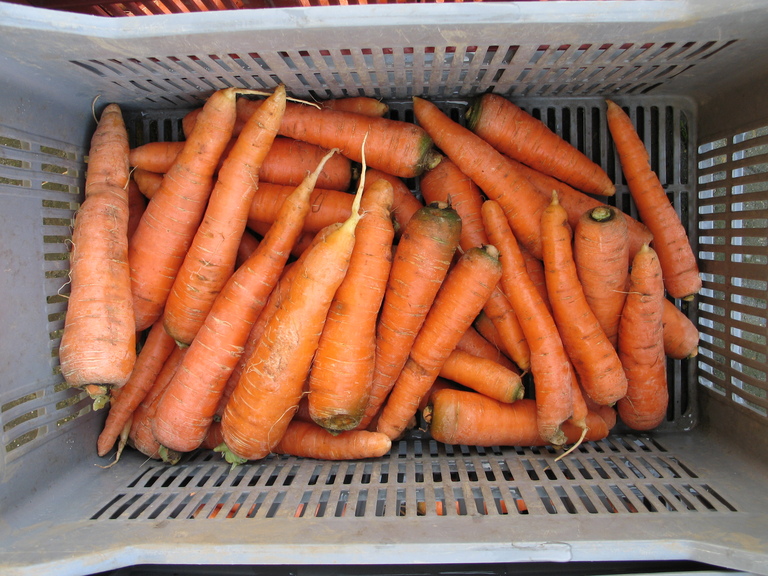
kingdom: Plantae
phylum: Tracheophyta
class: Magnoliopsida
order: Apiales
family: Apiaceae
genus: Daucus
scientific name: Daucus carota
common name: Wild carrot
